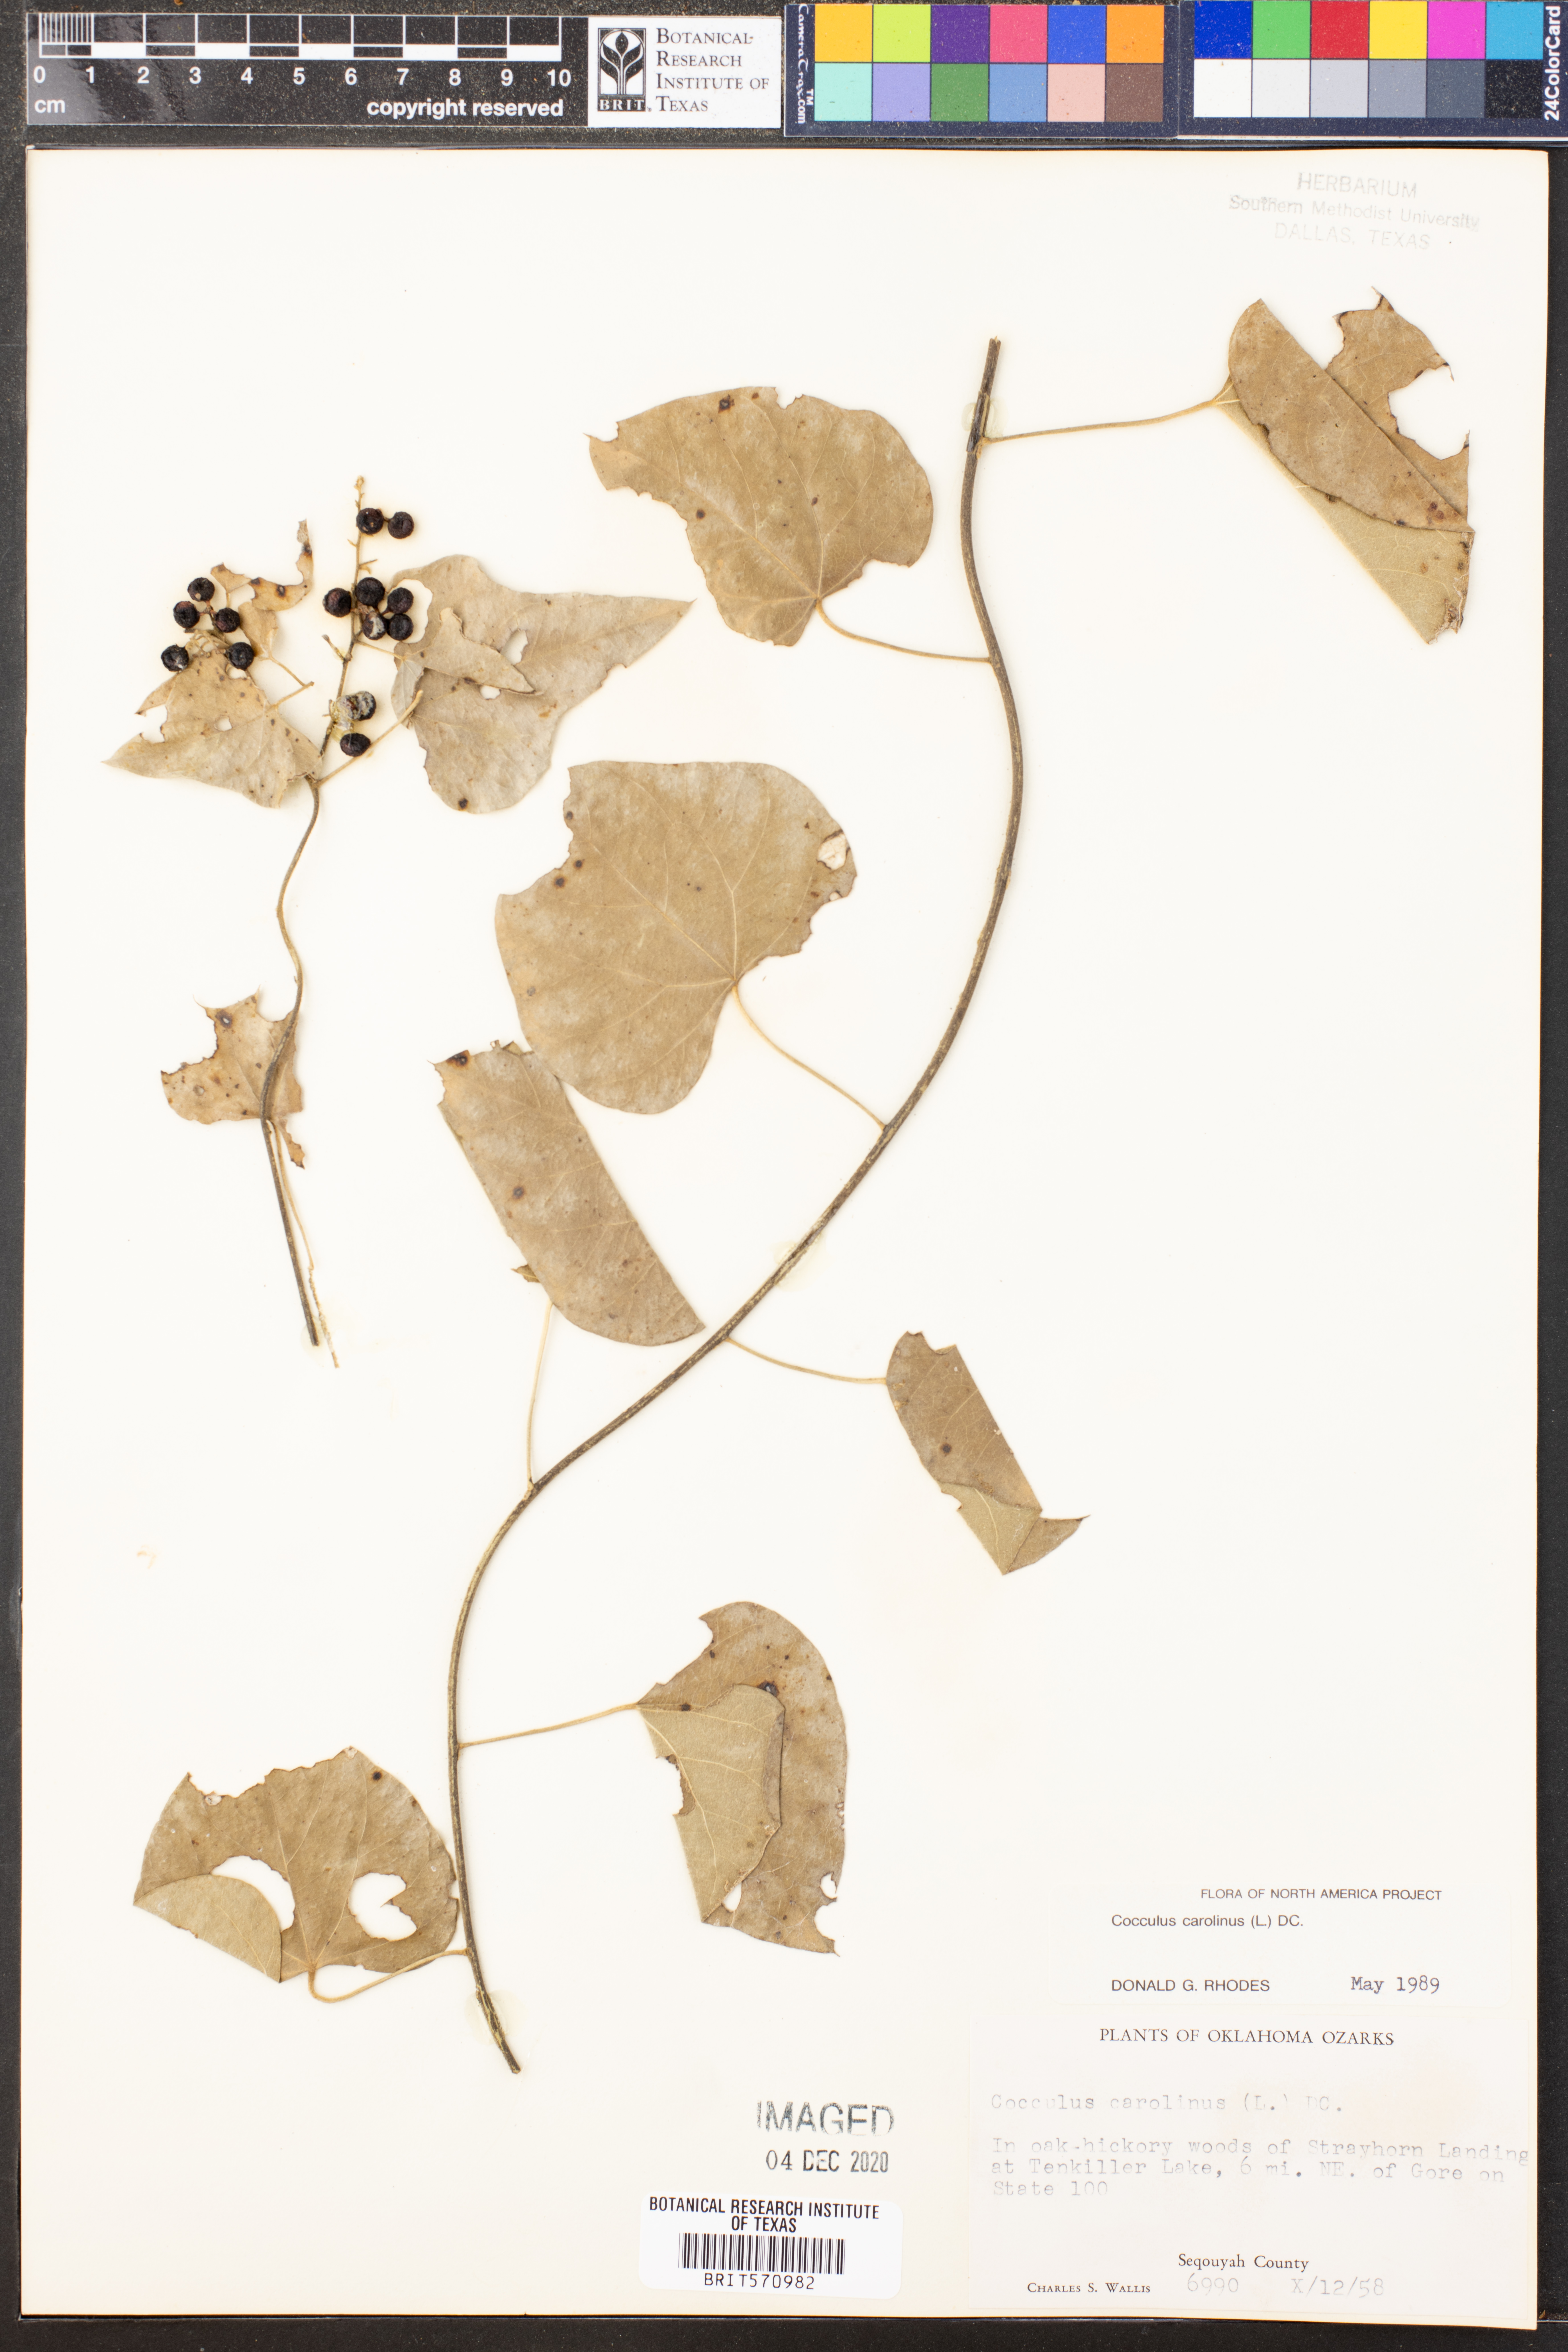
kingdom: Plantae
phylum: Tracheophyta
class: Magnoliopsida
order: Ranunculales
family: Menispermaceae
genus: Cocculus
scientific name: Cocculus carolinus
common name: Carolina moonseed
